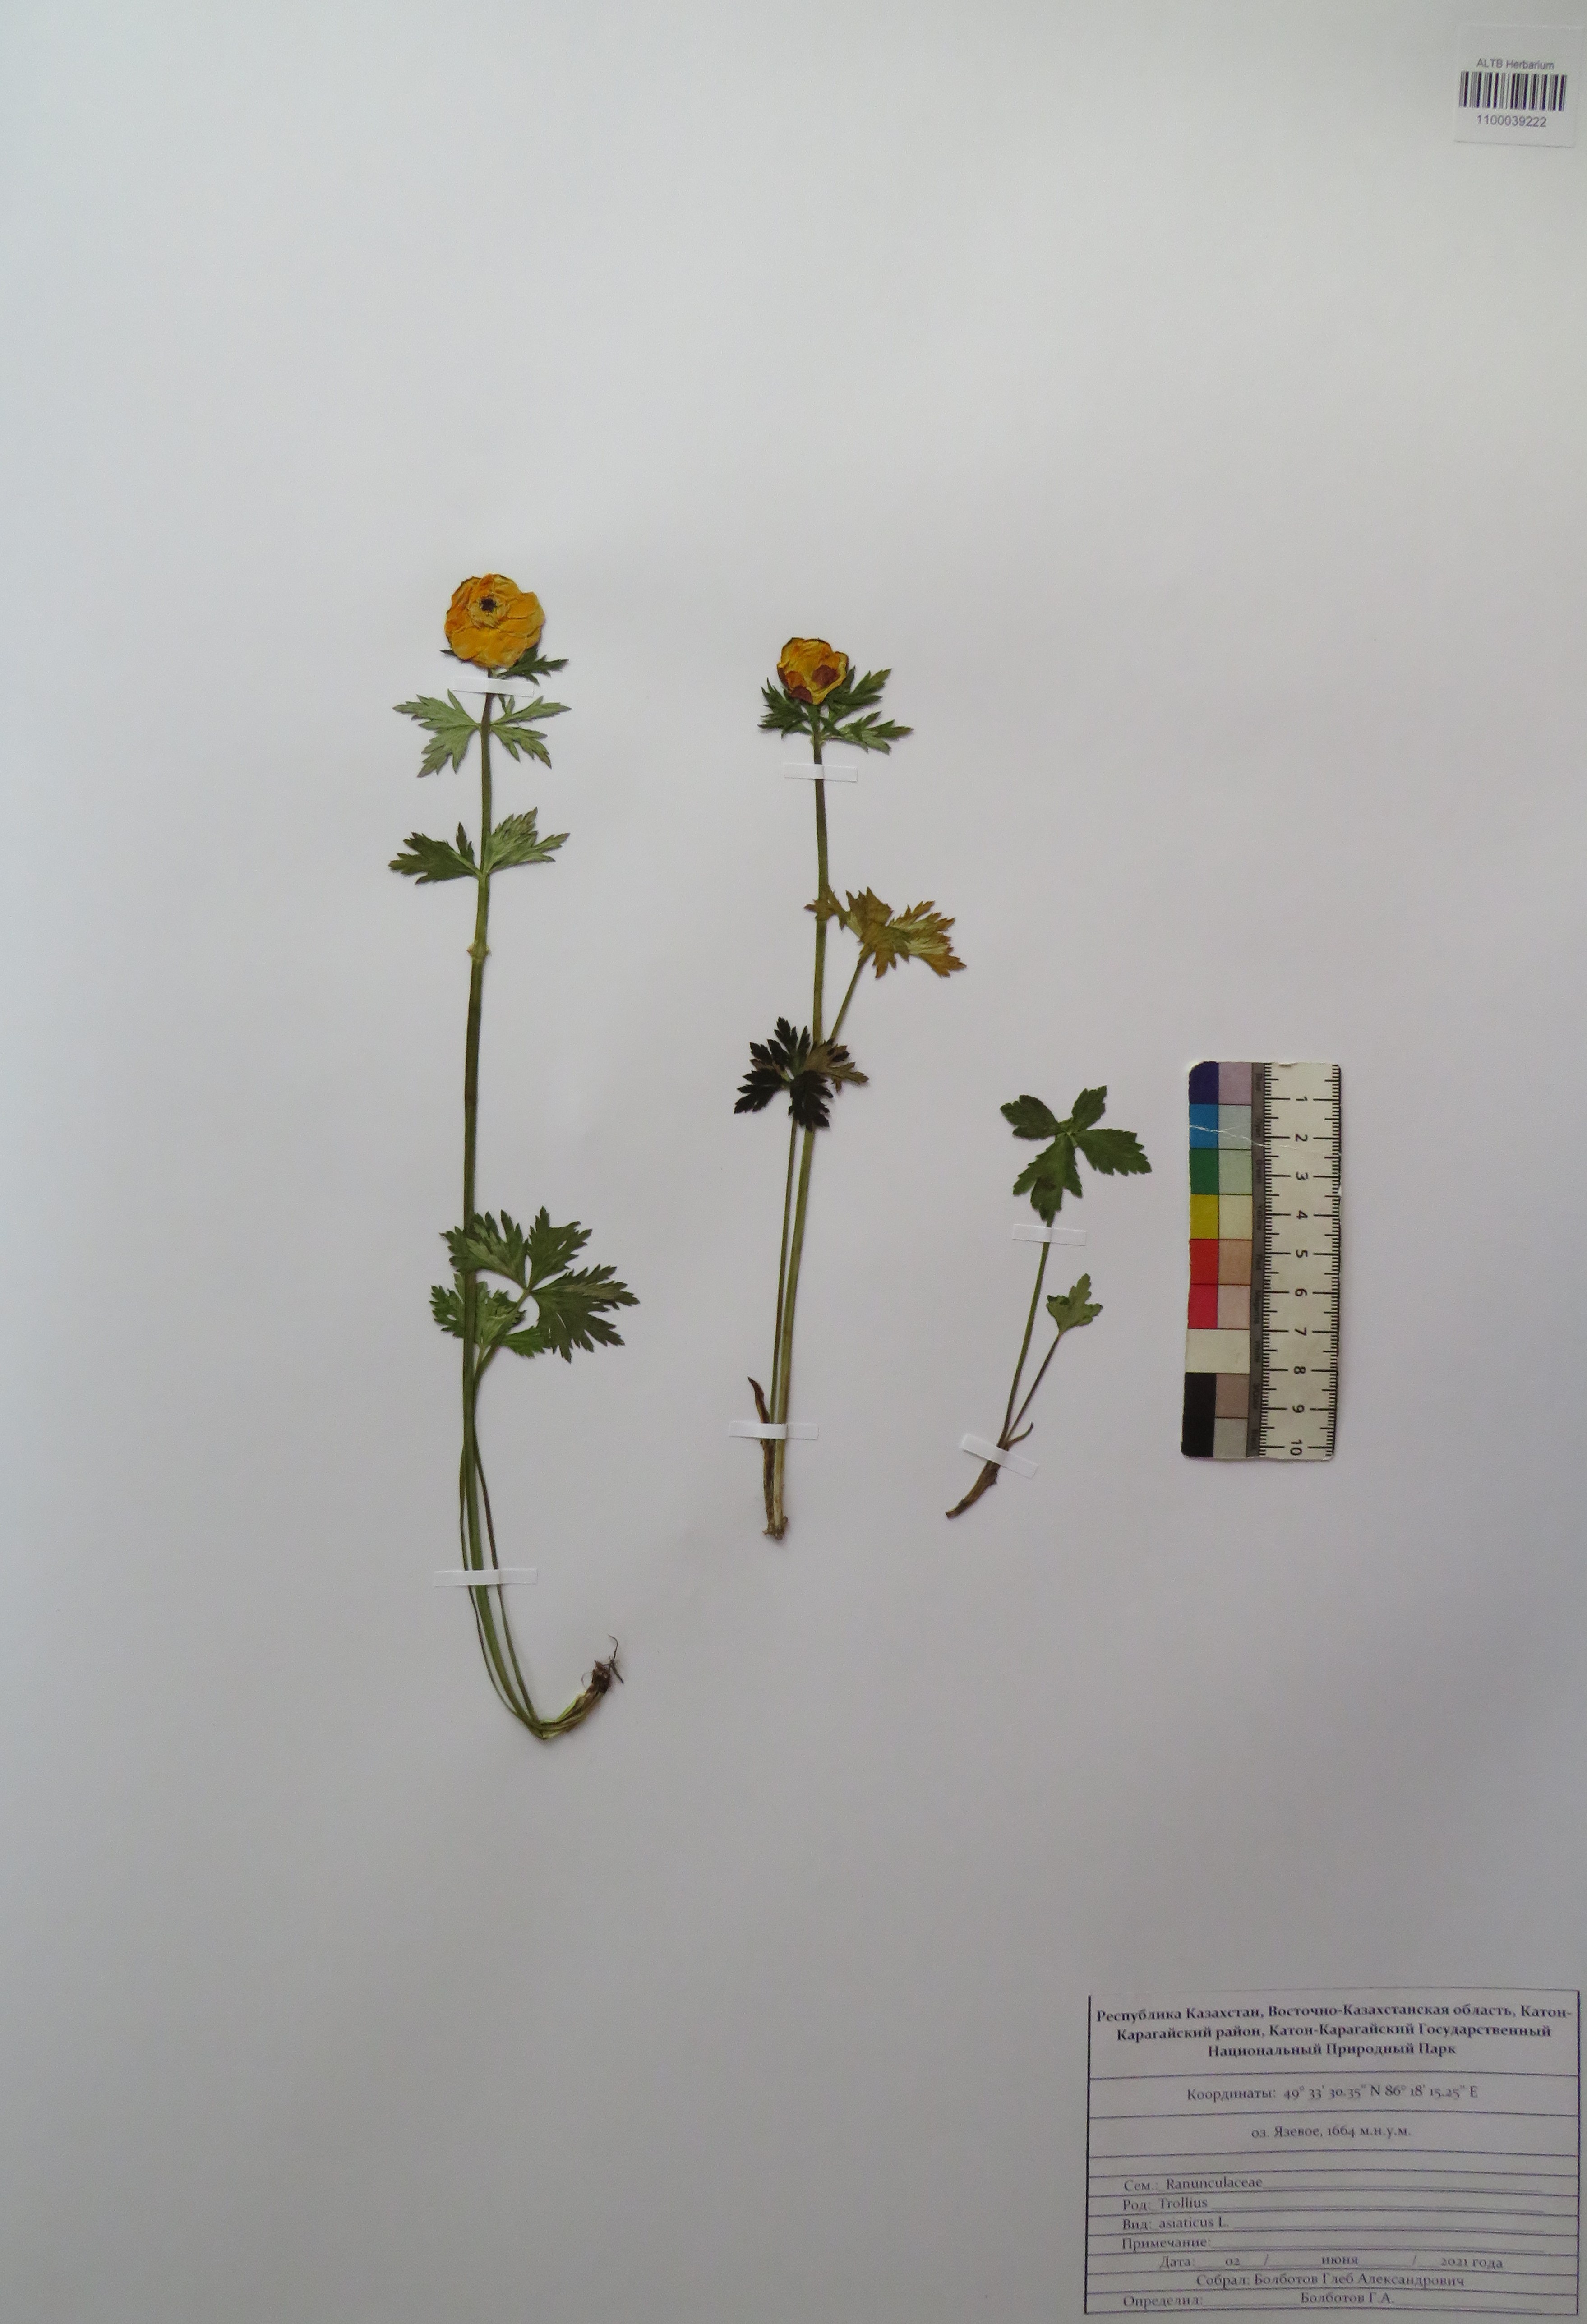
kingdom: Plantae
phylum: Tracheophyta
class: Magnoliopsida
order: Ranunculales
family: Ranunculaceae
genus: Trollius
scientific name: Trollius asiaticus
